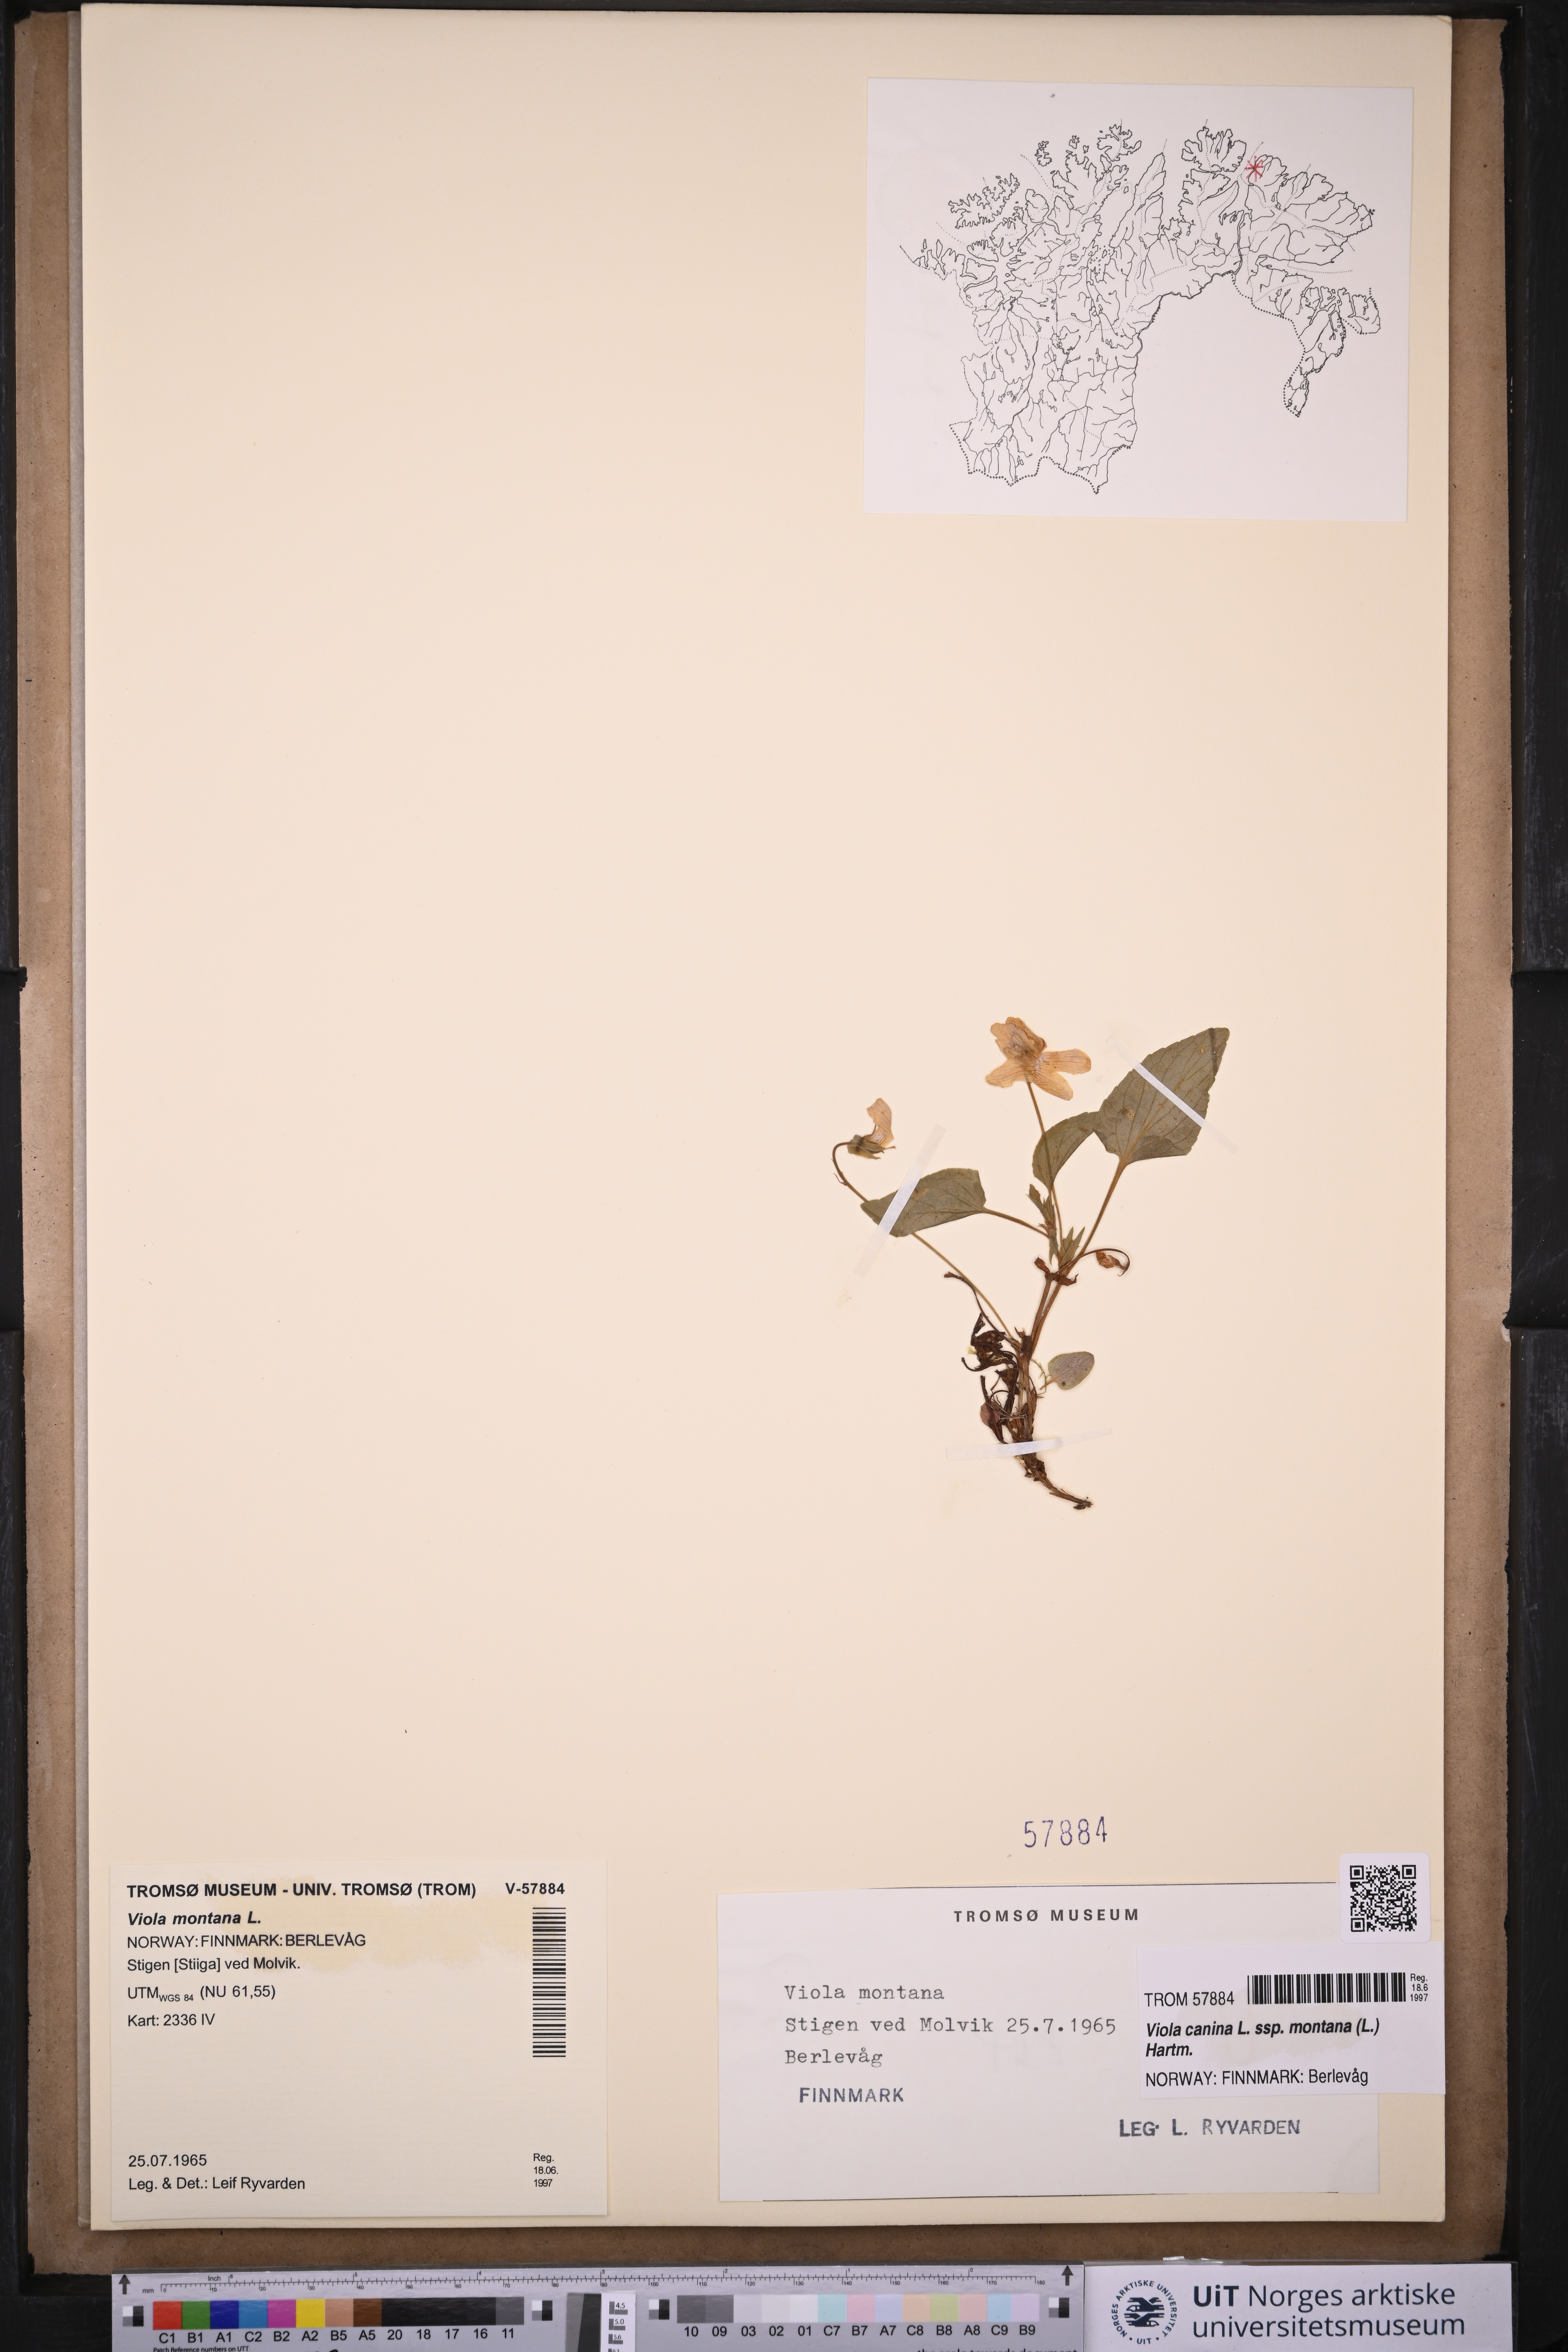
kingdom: Plantae
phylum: Tracheophyta
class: Magnoliopsida
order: Malpighiales
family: Violaceae
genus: Viola
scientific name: Viola ruppii
